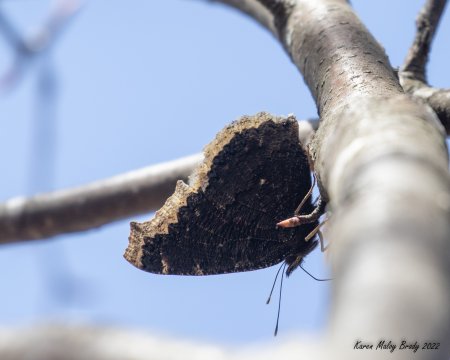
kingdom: Animalia
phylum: Arthropoda
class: Insecta
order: Lepidoptera
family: Nymphalidae
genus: Nymphalis
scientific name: Nymphalis antiopa
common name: Mourning Cloak
